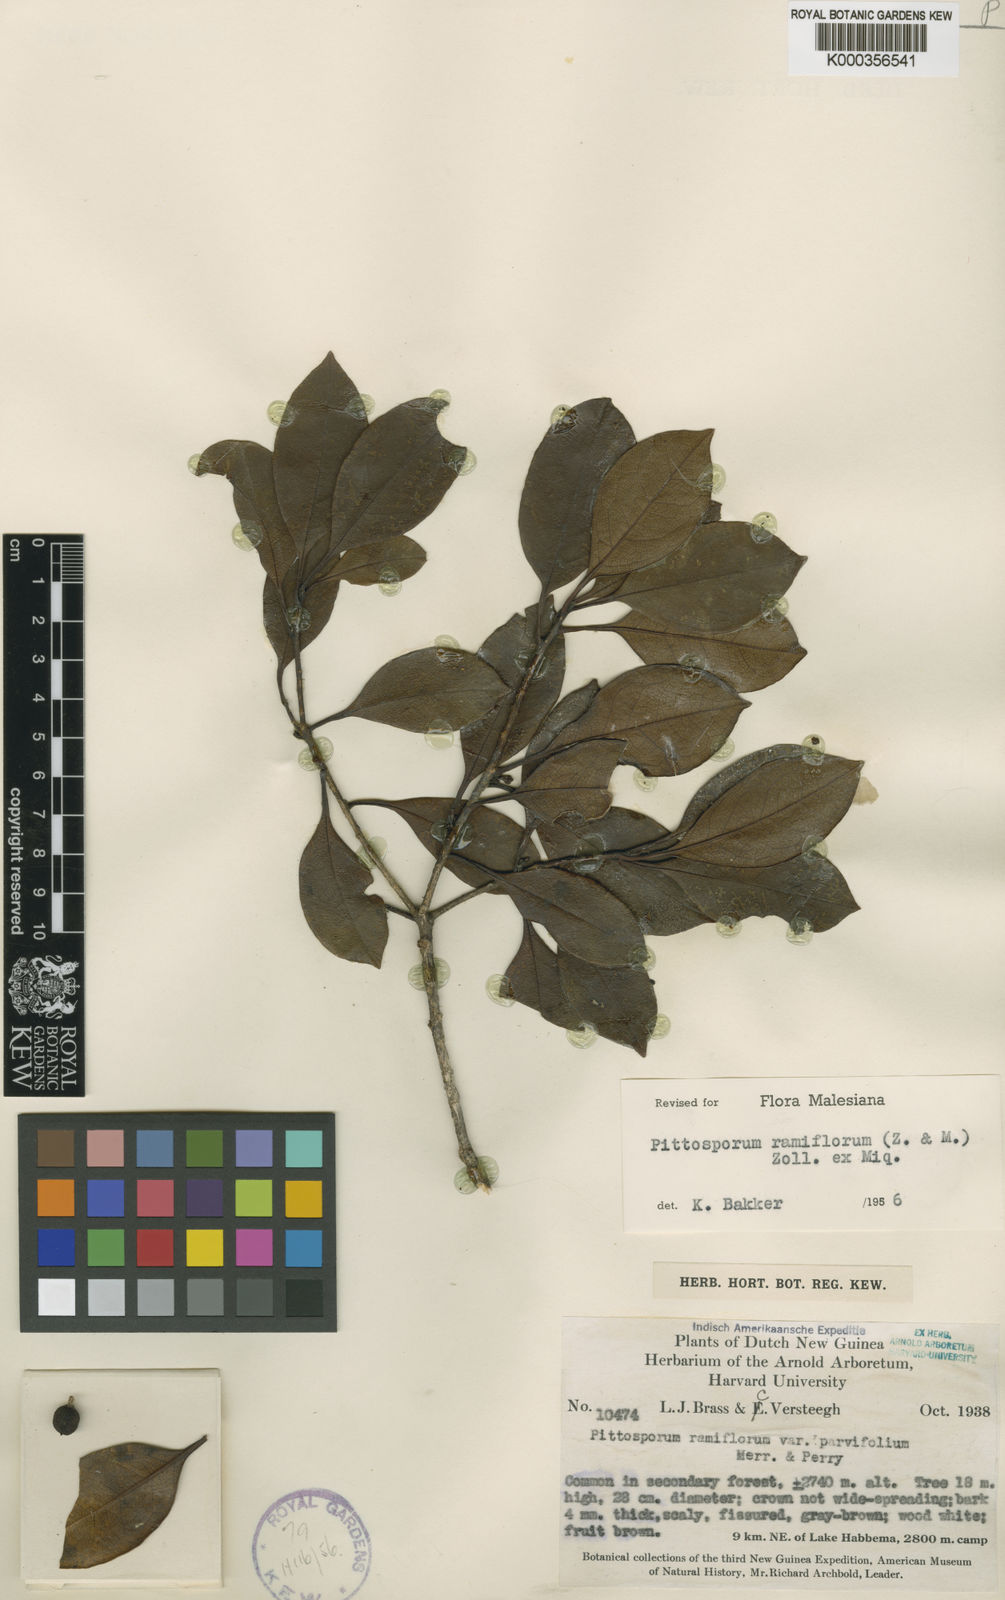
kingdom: Plantae
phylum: Tracheophyta
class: Magnoliopsida
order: Apiales
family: Pittosporaceae
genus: Pittosporum
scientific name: Pittosporum ramiflorum
